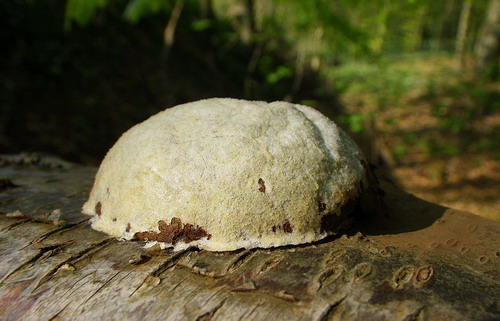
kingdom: Protozoa
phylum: Mycetozoa
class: Myxomycetes
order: Cribrariales
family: Tubiferaceae
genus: Reticularia
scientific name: Reticularia lycoperdon
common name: skinnende støvpude
